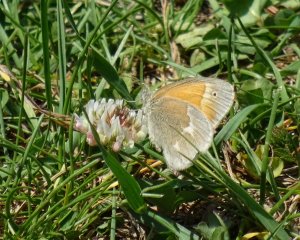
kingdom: Animalia
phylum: Arthropoda
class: Insecta
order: Lepidoptera
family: Nymphalidae
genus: Coenonympha
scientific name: Coenonympha tullia
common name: Large Heath
